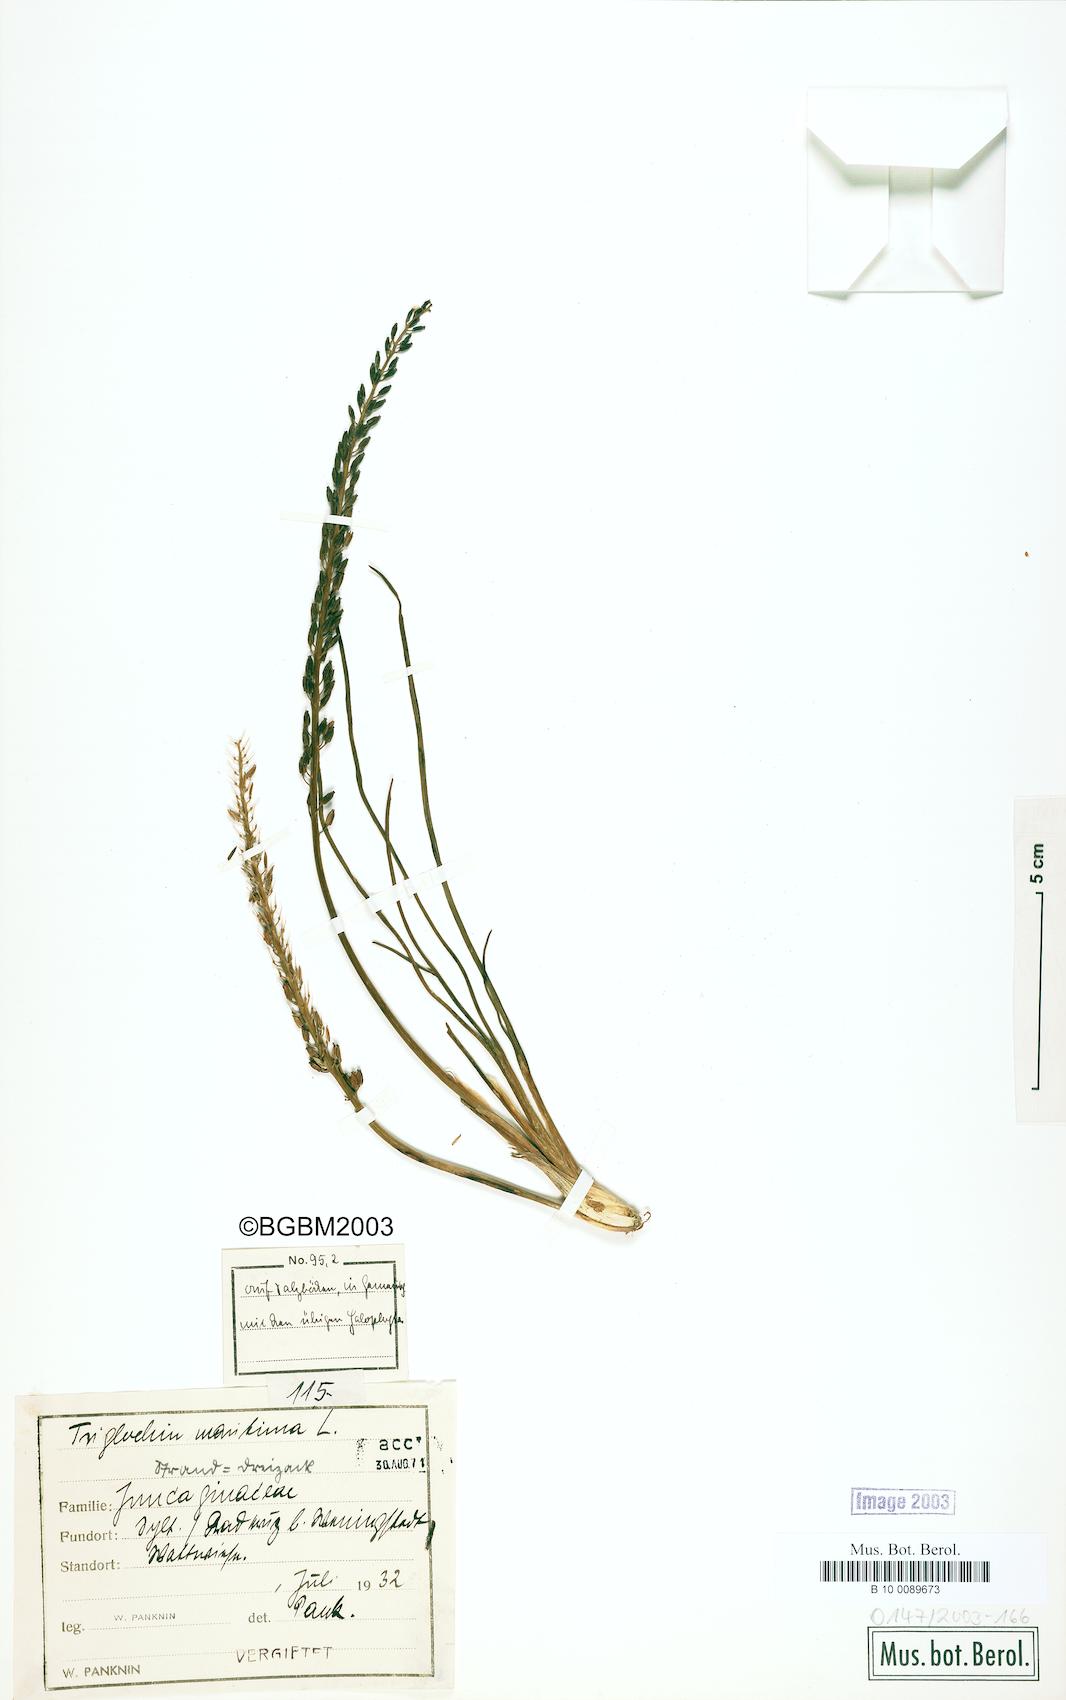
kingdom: Plantae
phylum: Tracheophyta
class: Liliopsida
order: Alismatales
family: Juncaginaceae
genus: Triglochin
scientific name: Triglochin maritima
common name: Sea arrowgrass
